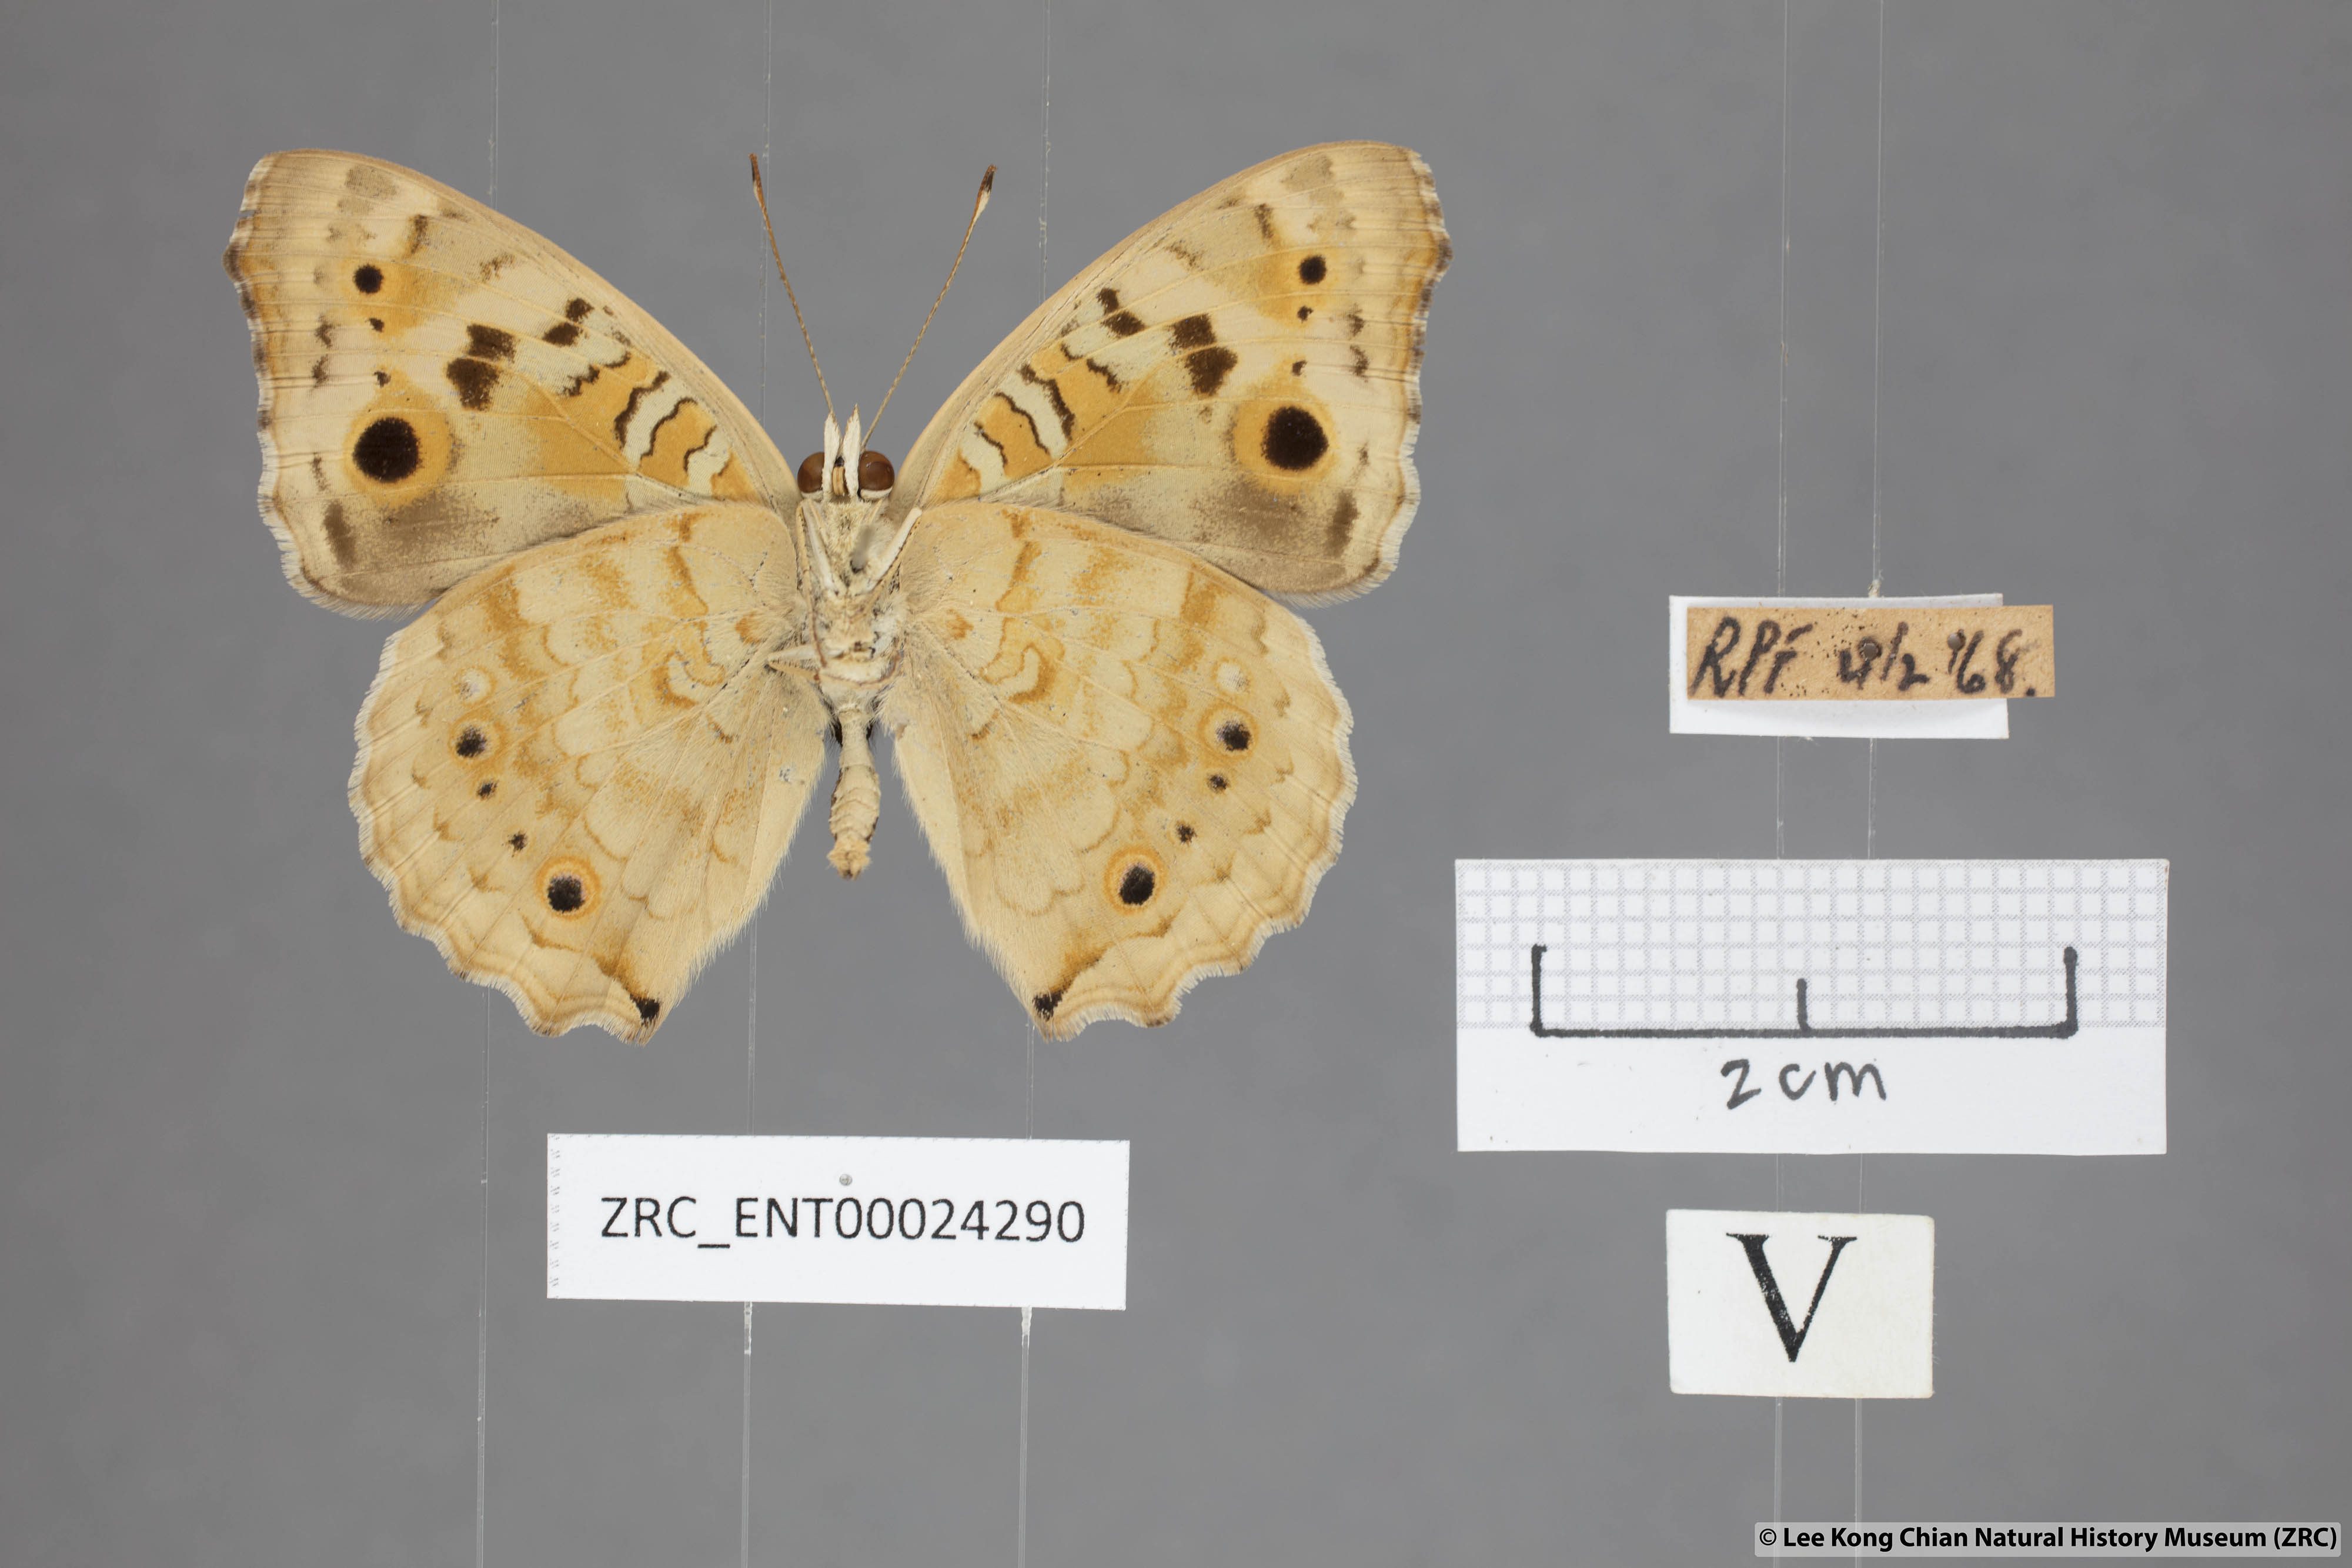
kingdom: Animalia
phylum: Arthropoda
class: Insecta
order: Lepidoptera
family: Nymphalidae
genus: Junonia
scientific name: Junonia orithya
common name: Blue pansy
